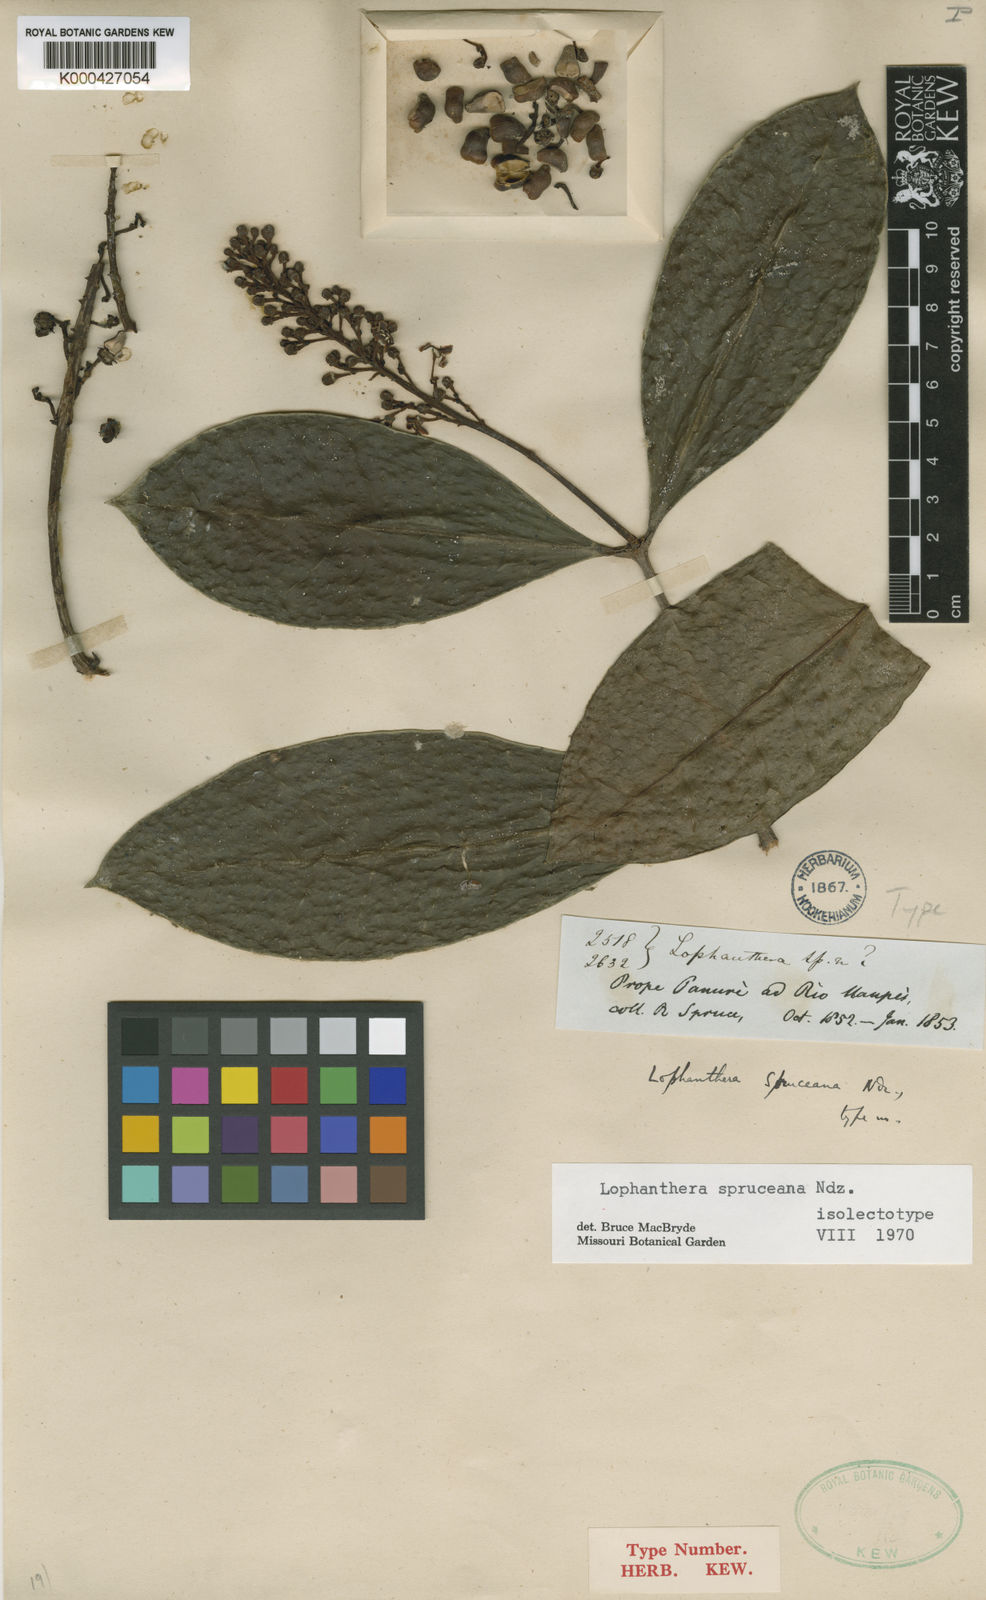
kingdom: Plantae
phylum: Tracheophyta
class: Magnoliopsida
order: Malpighiales
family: Malpighiaceae
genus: Andersoniodoxa
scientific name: Andersoniodoxa spruceana
